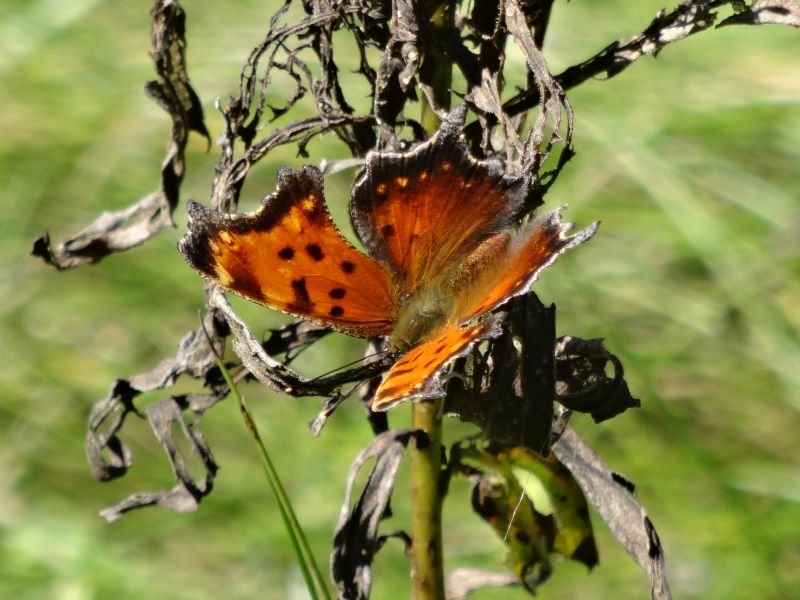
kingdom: Animalia
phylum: Arthropoda
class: Insecta
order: Lepidoptera
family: Nymphalidae
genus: Polygonia
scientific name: Polygonia progne
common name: Gray Comma
